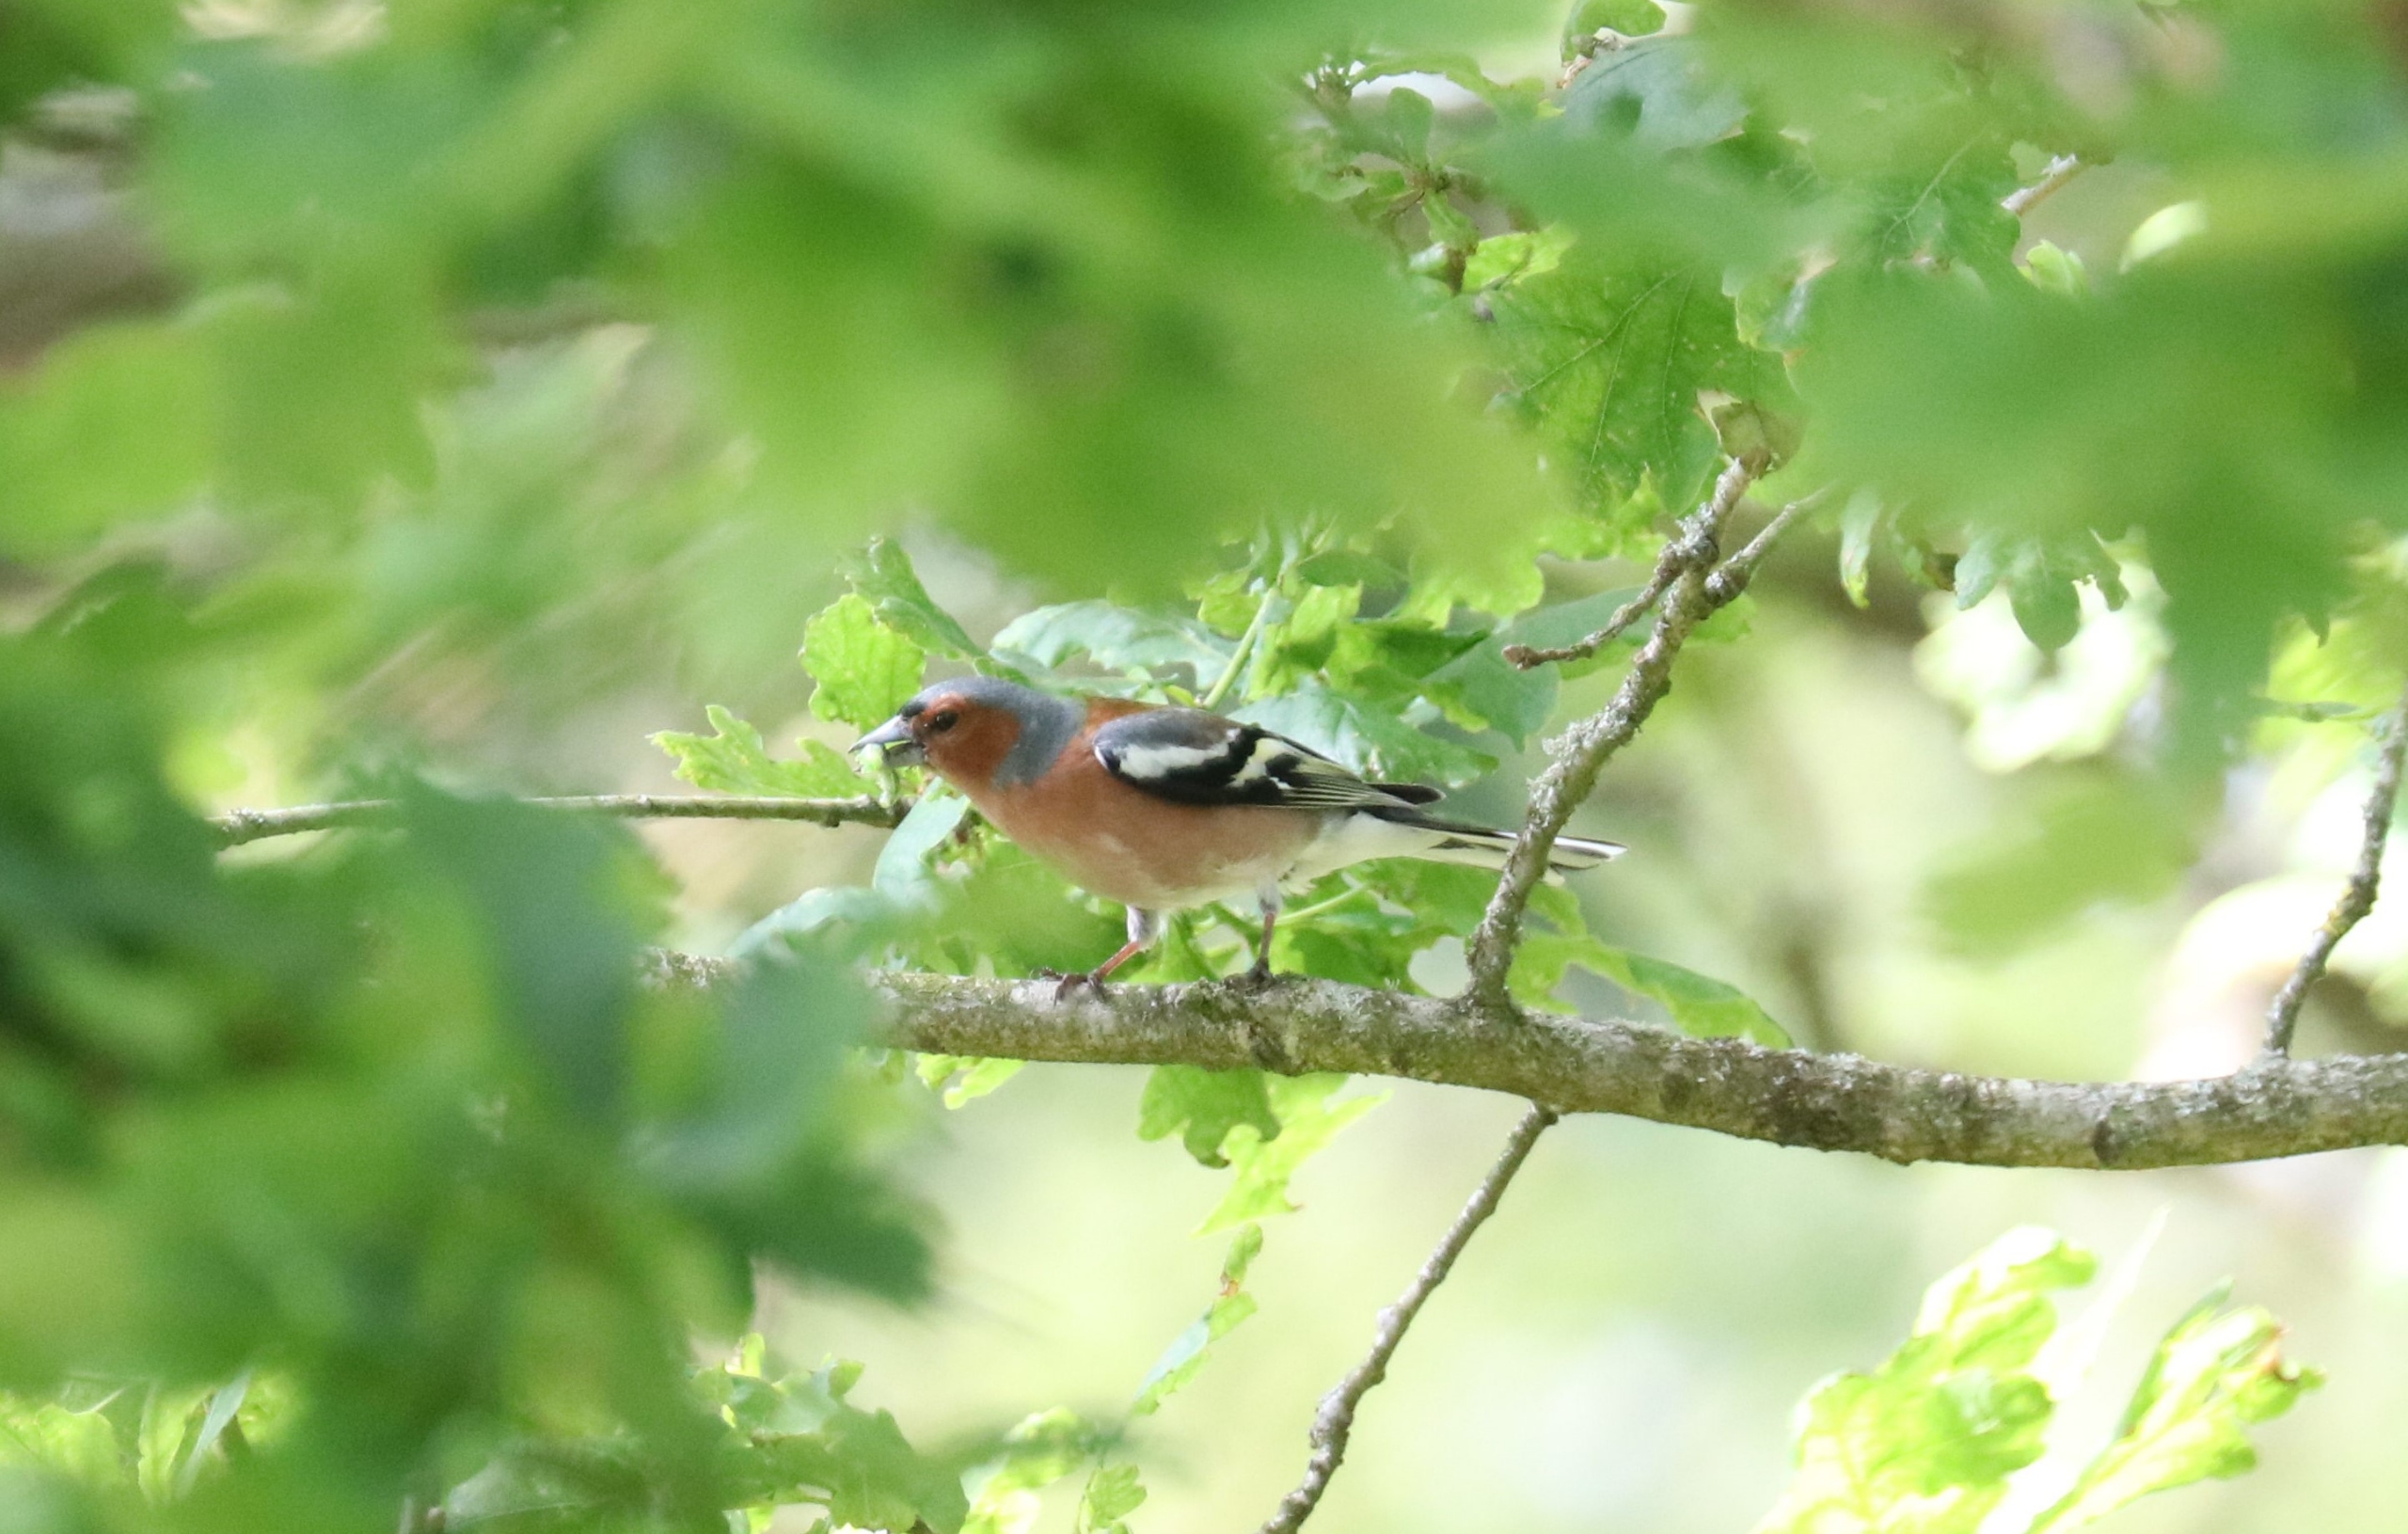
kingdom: Animalia
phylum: Chordata
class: Aves
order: Passeriformes
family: Fringillidae
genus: Fringilla
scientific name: Fringilla coelebs
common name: Bogfinke
